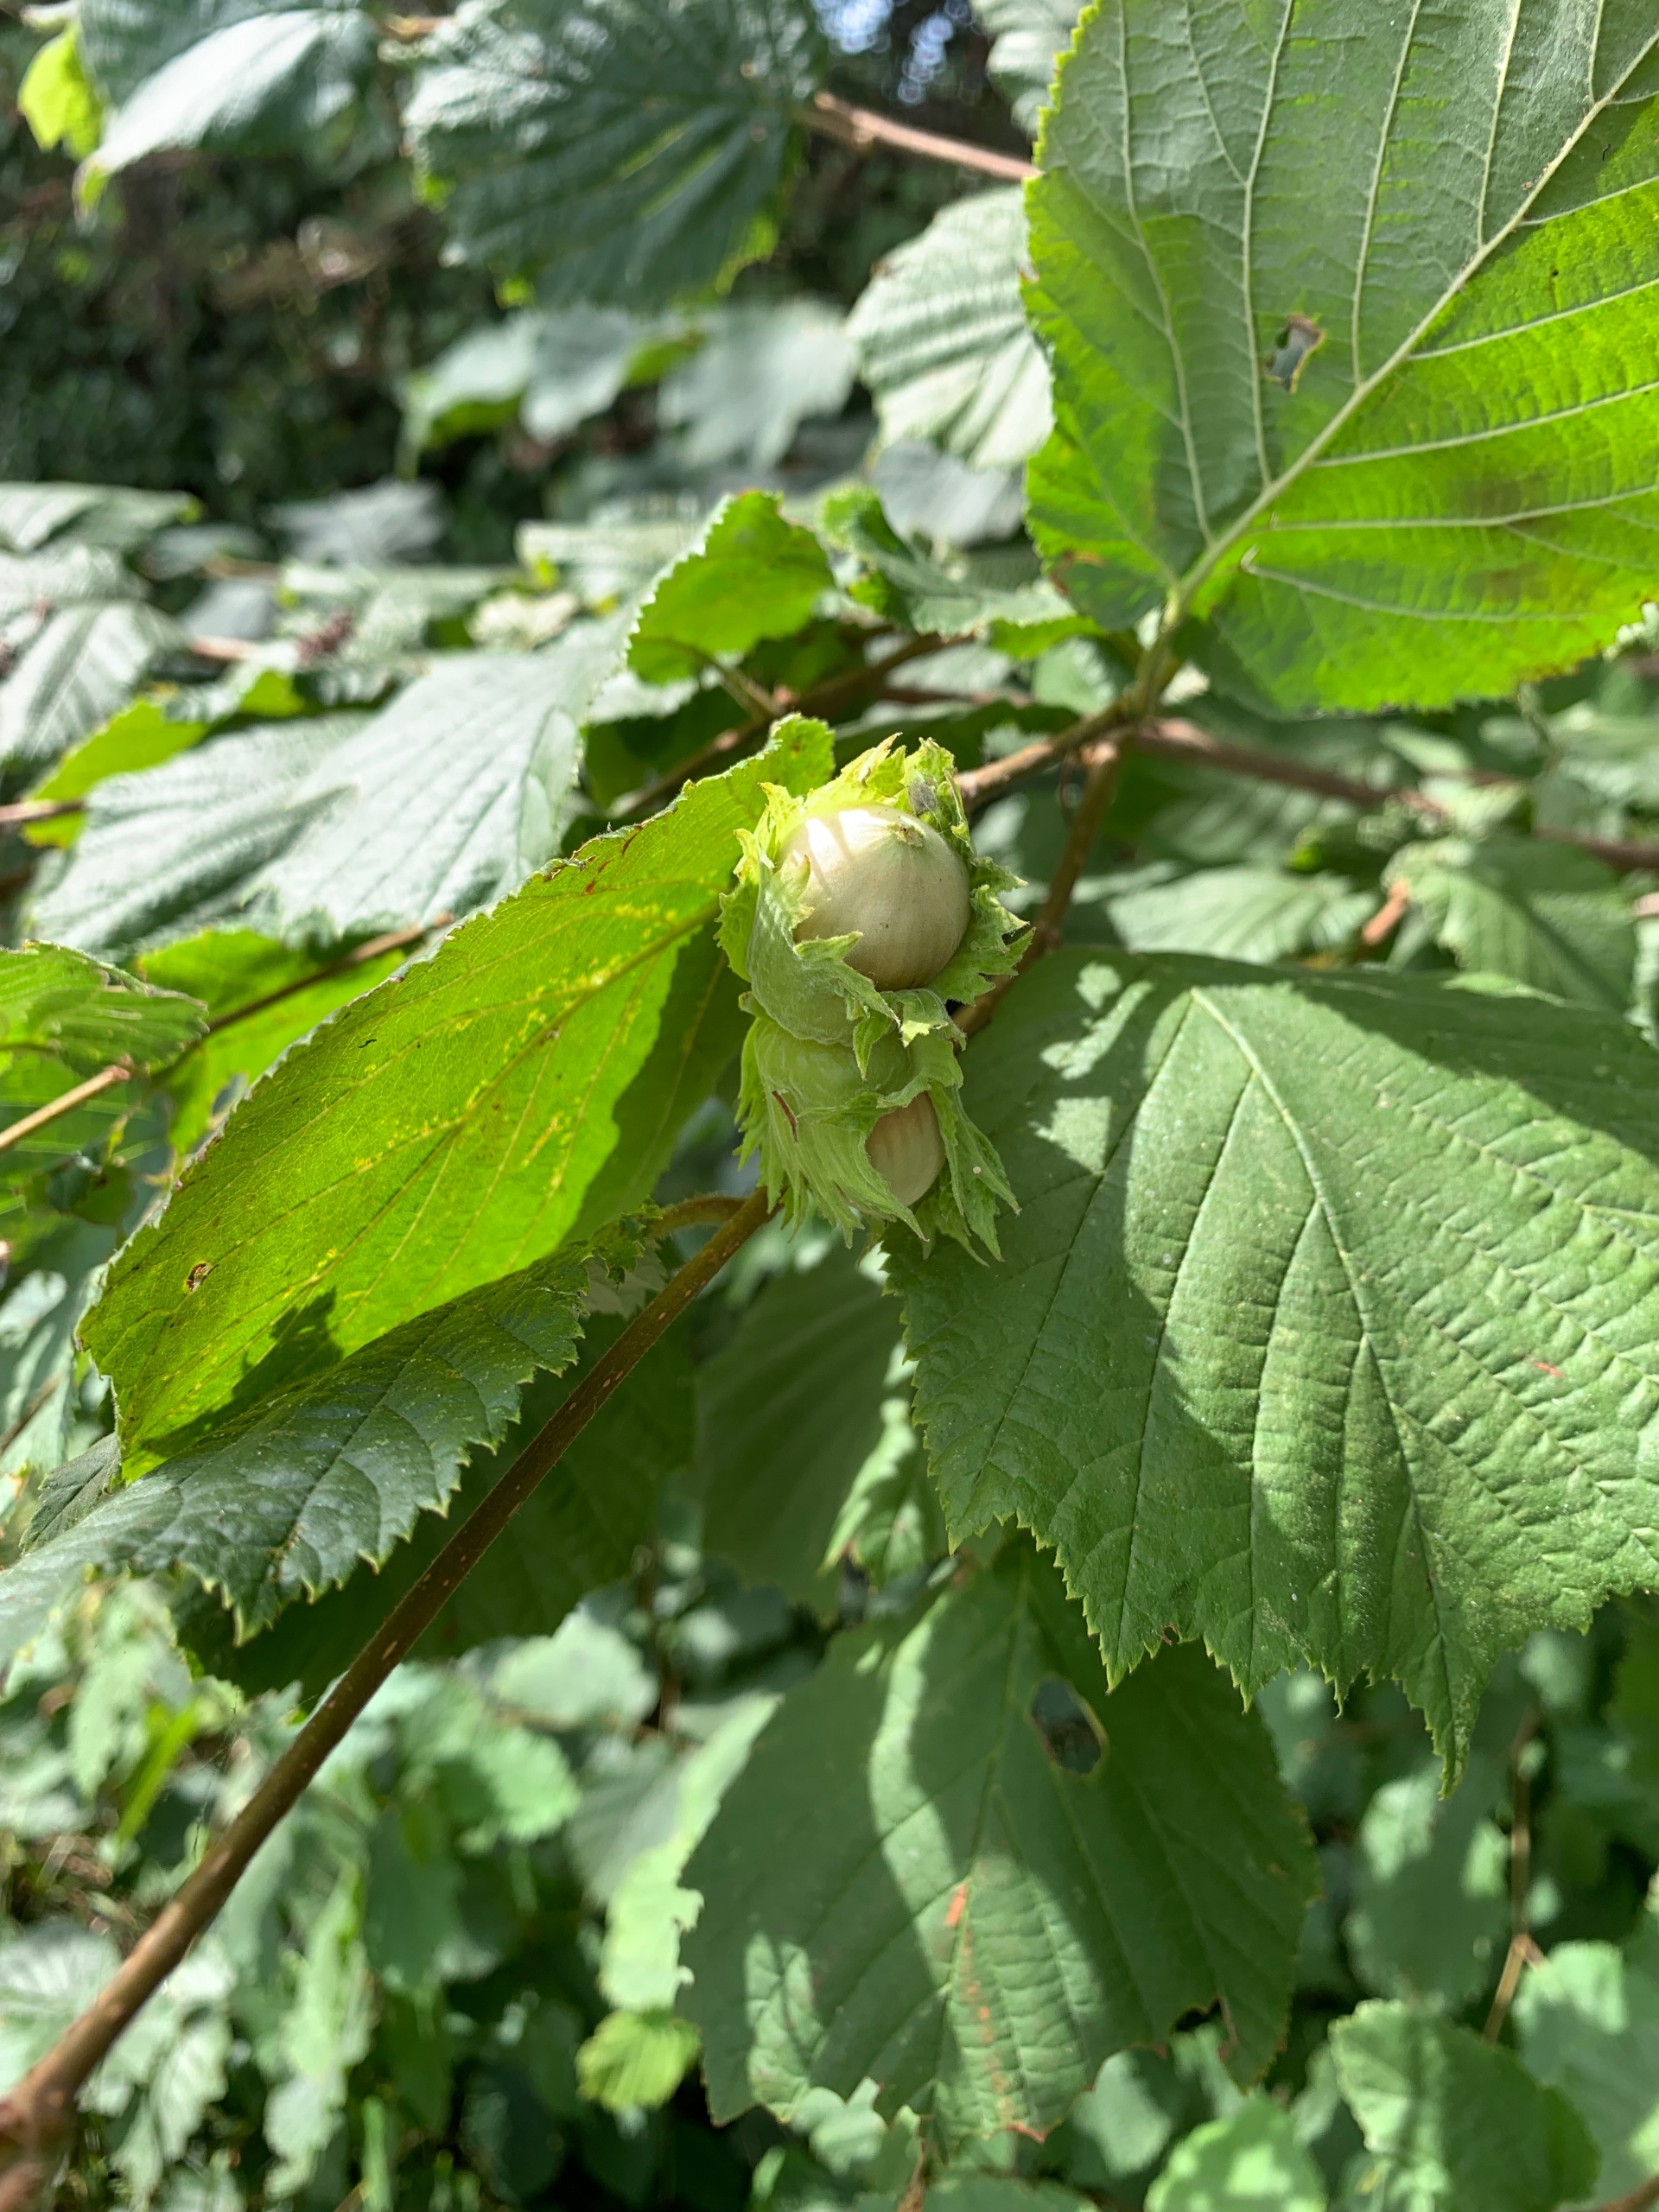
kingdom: Plantae
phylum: Tracheophyta
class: Magnoliopsida
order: Fagales
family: Betulaceae
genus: Corylus
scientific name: Corylus avellana
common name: Hassel
